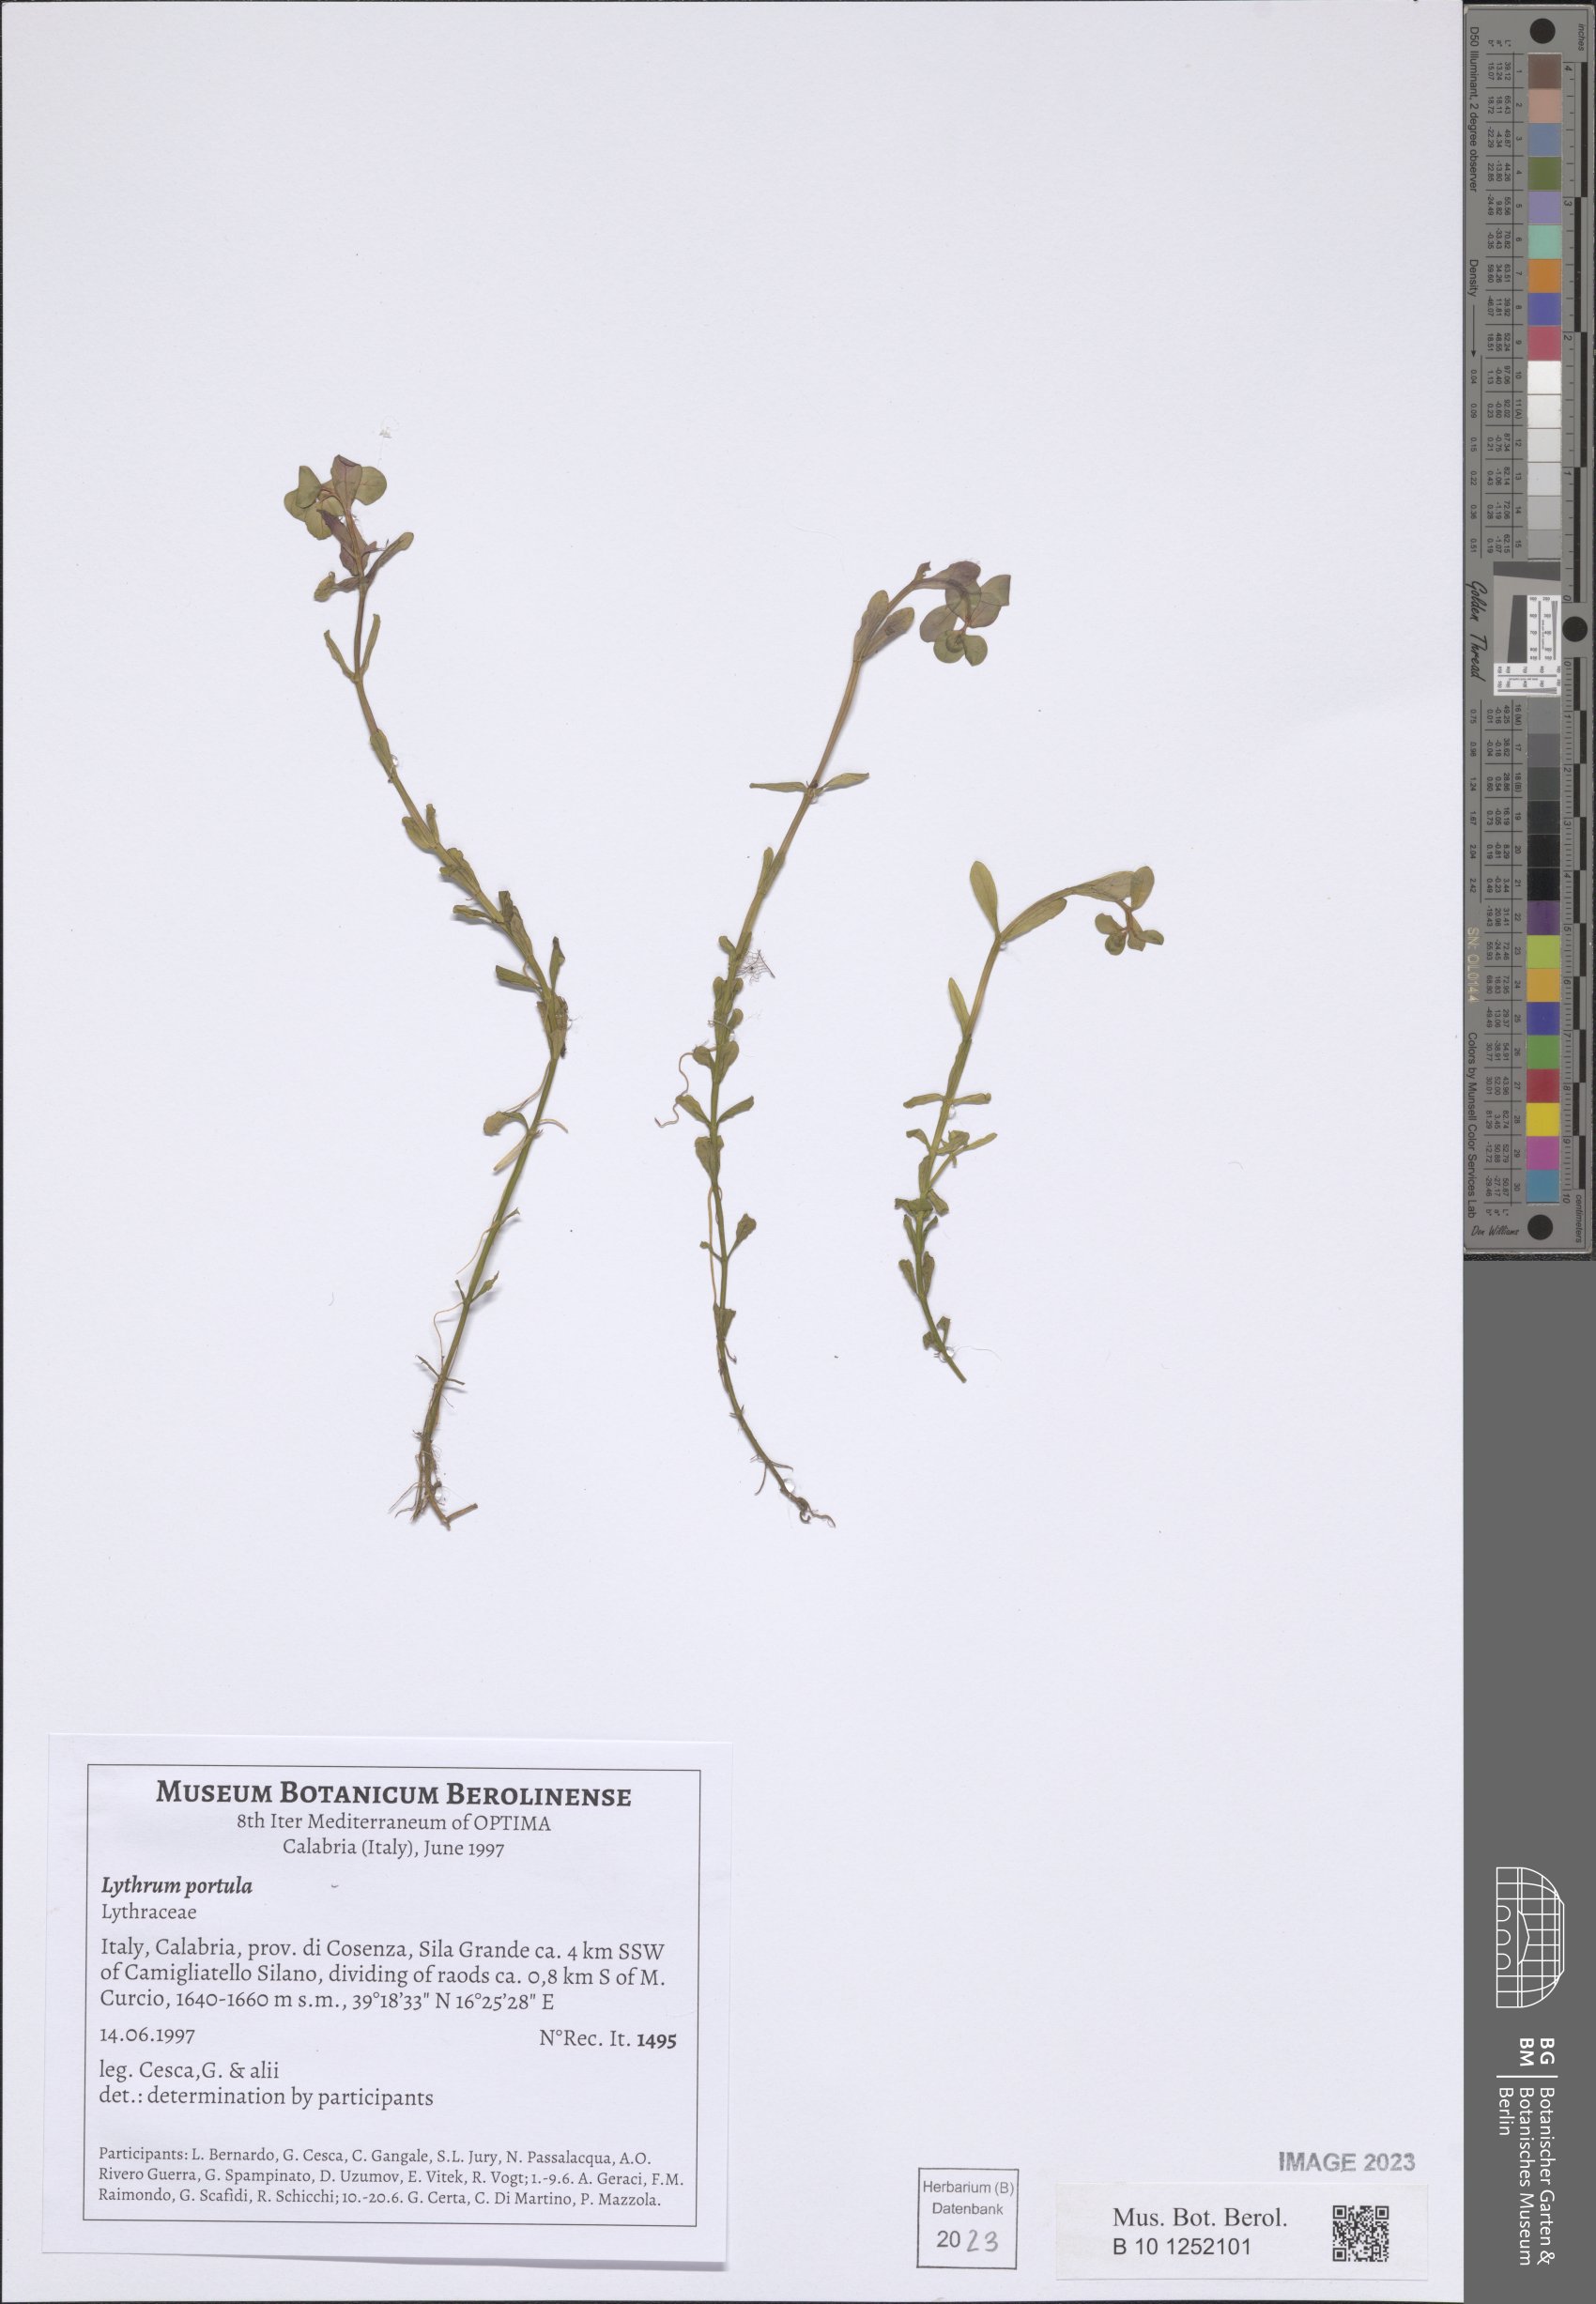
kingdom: Plantae
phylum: Tracheophyta
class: Magnoliopsida
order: Myrtales
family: Lythraceae
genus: Lythrum
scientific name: Lythrum portula
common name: Water purslane
